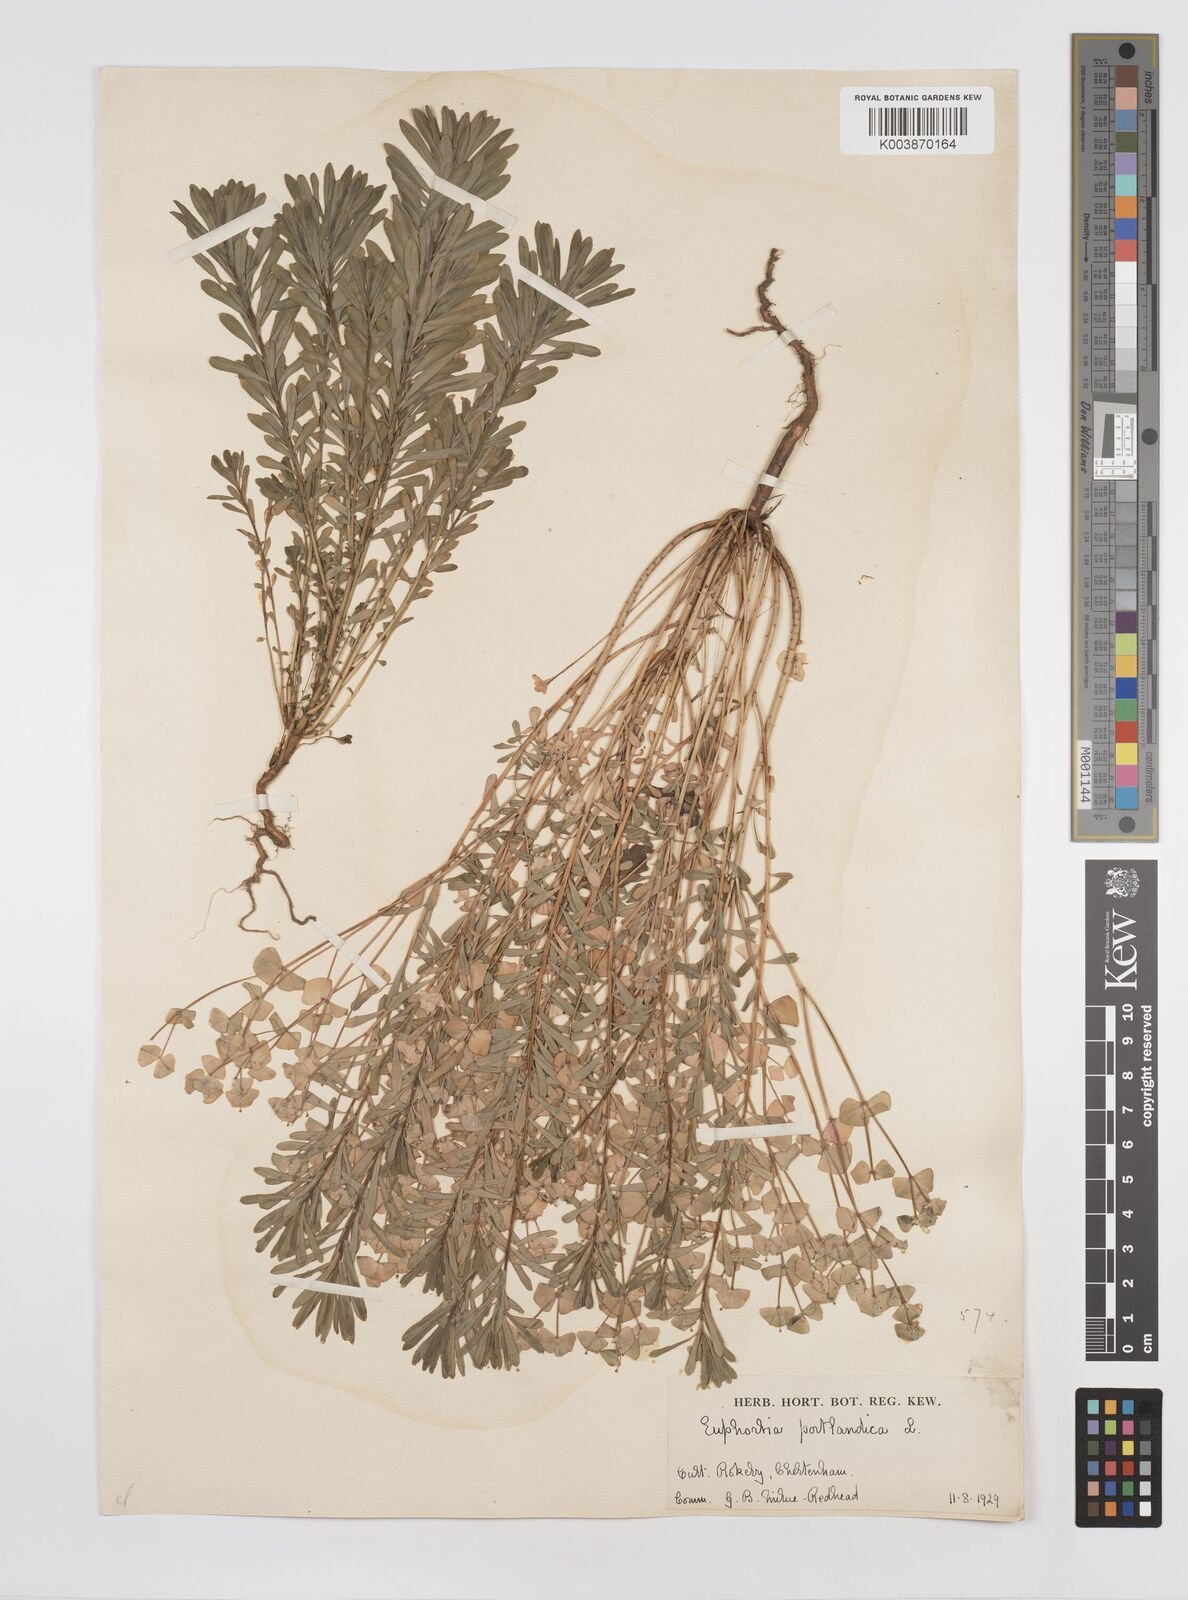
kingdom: Plantae
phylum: Tracheophyta
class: Magnoliopsida
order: Malpighiales
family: Euphorbiaceae
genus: Euphorbia
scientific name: Euphorbia portlandica
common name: Portland spurge
